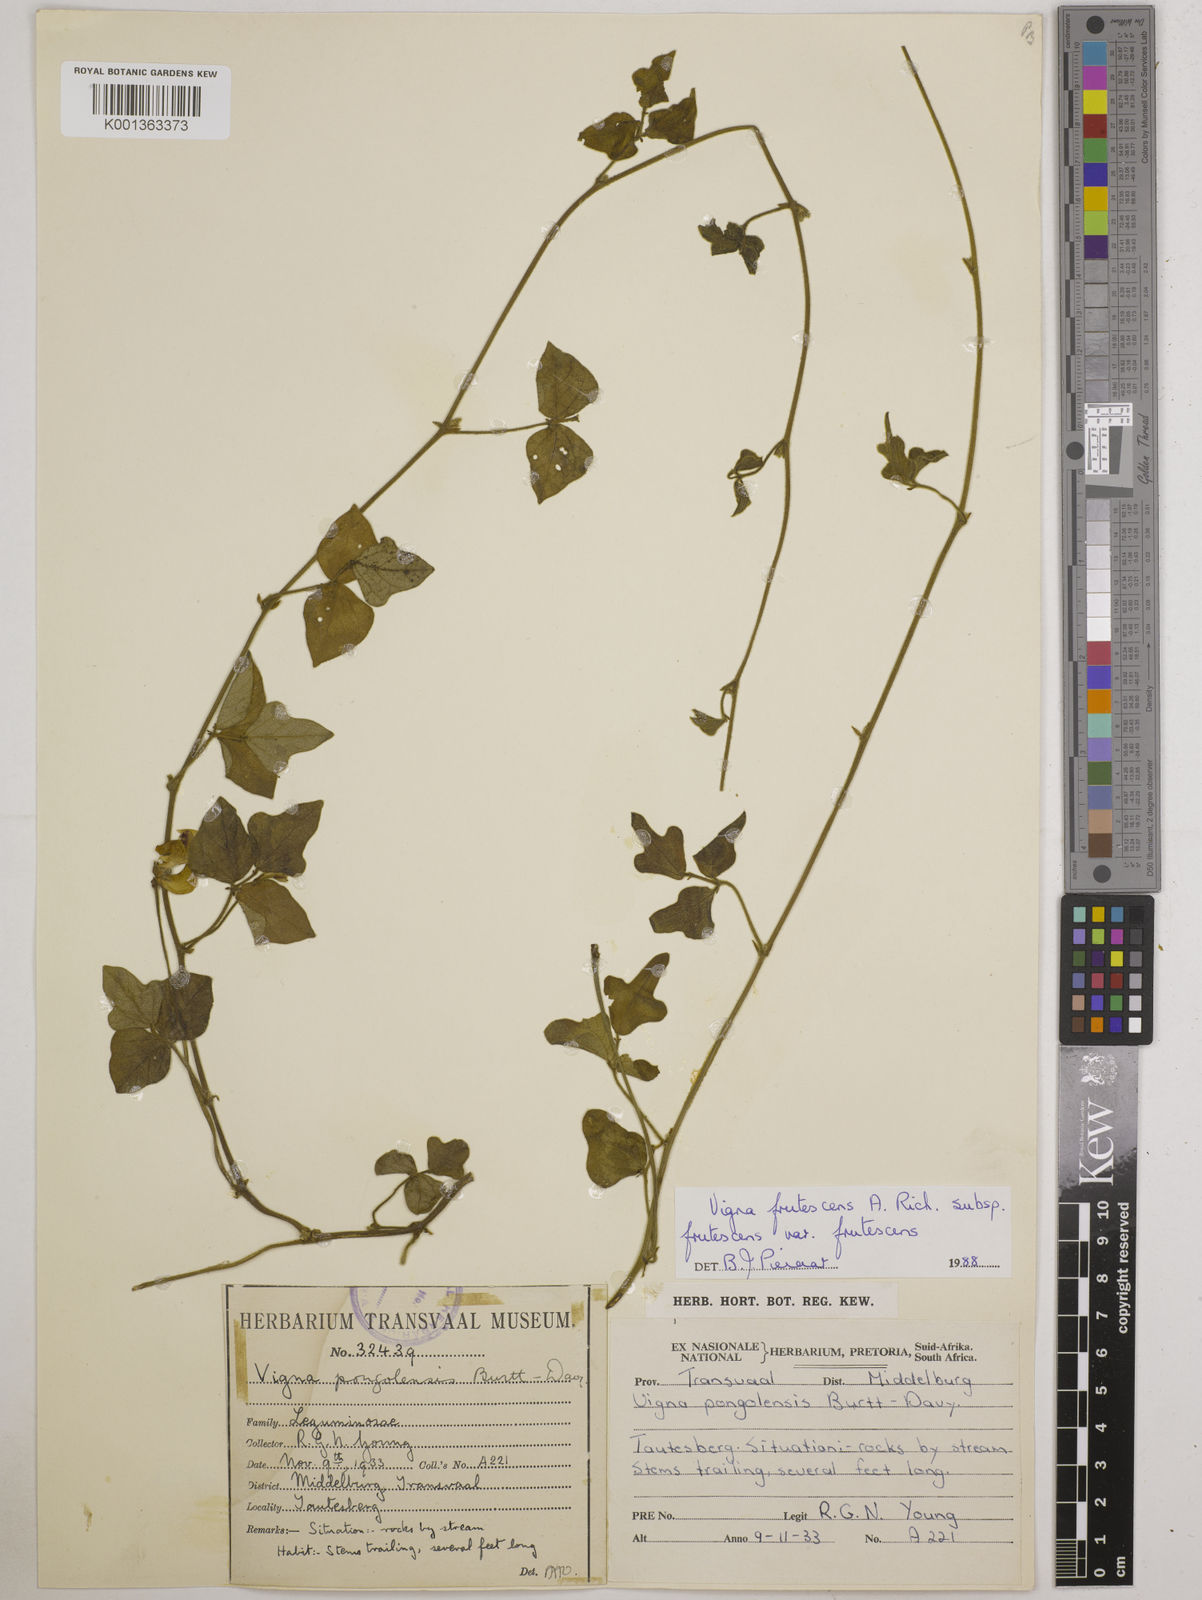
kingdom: Plantae
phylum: Tracheophyta
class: Magnoliopsida
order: Fabales
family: Fabaceae
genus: Vigna
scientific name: Vigna frutescens
